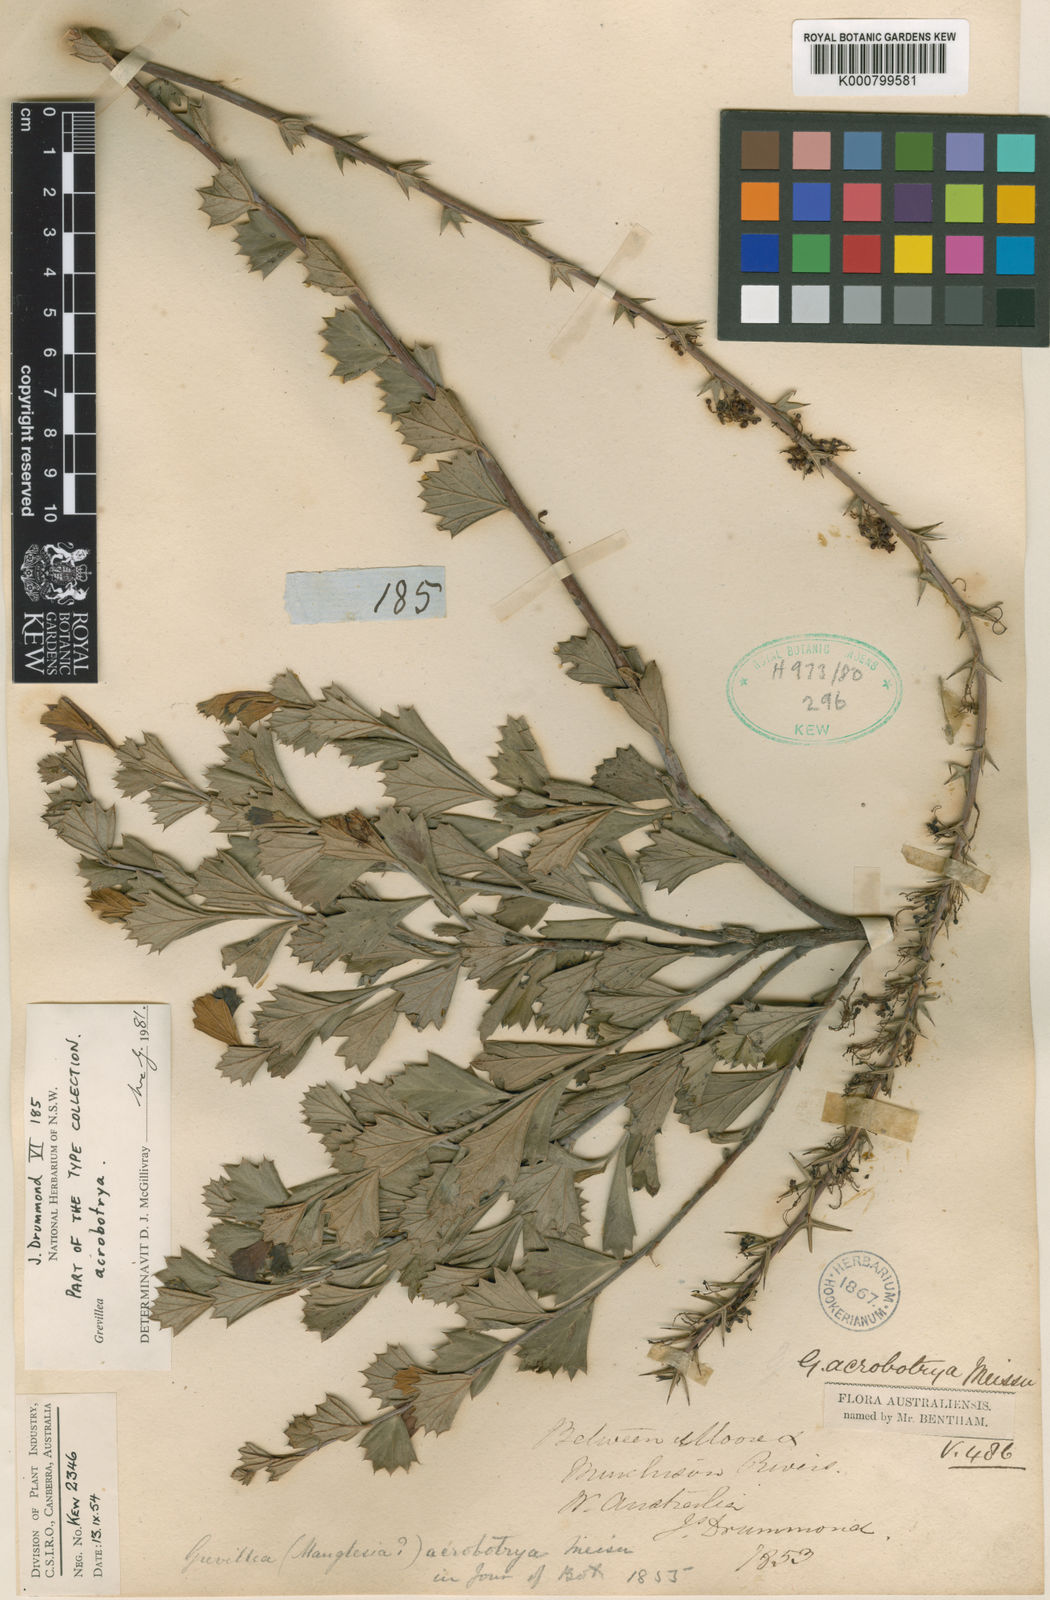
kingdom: Plantae
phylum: Tracheophyta
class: Magnoliopsida
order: Proteales
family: Proteaceae
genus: Grevillea
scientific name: Grevillea acrobotrya
